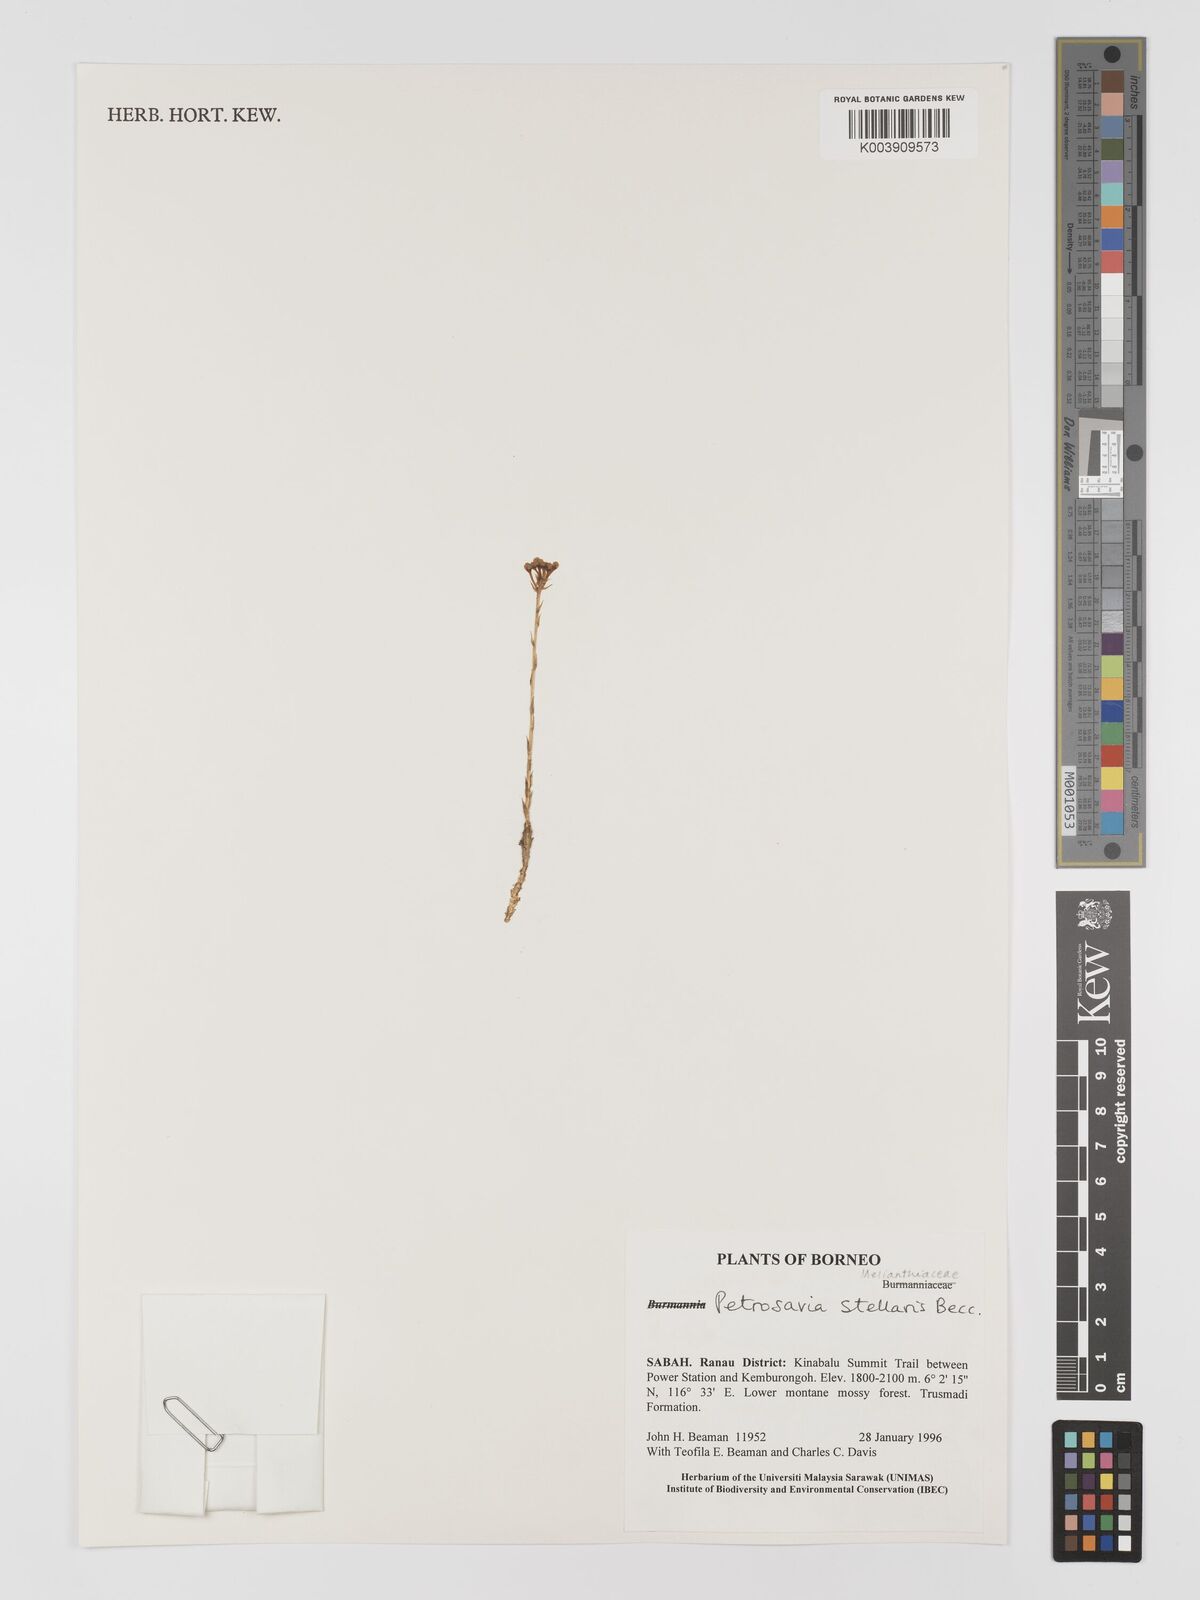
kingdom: Plantae
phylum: Tracheophyta
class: Liliopsida
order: Petrosaviales
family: Petrosaviaceae
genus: Petrosavia
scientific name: Petrosavia stellaris
